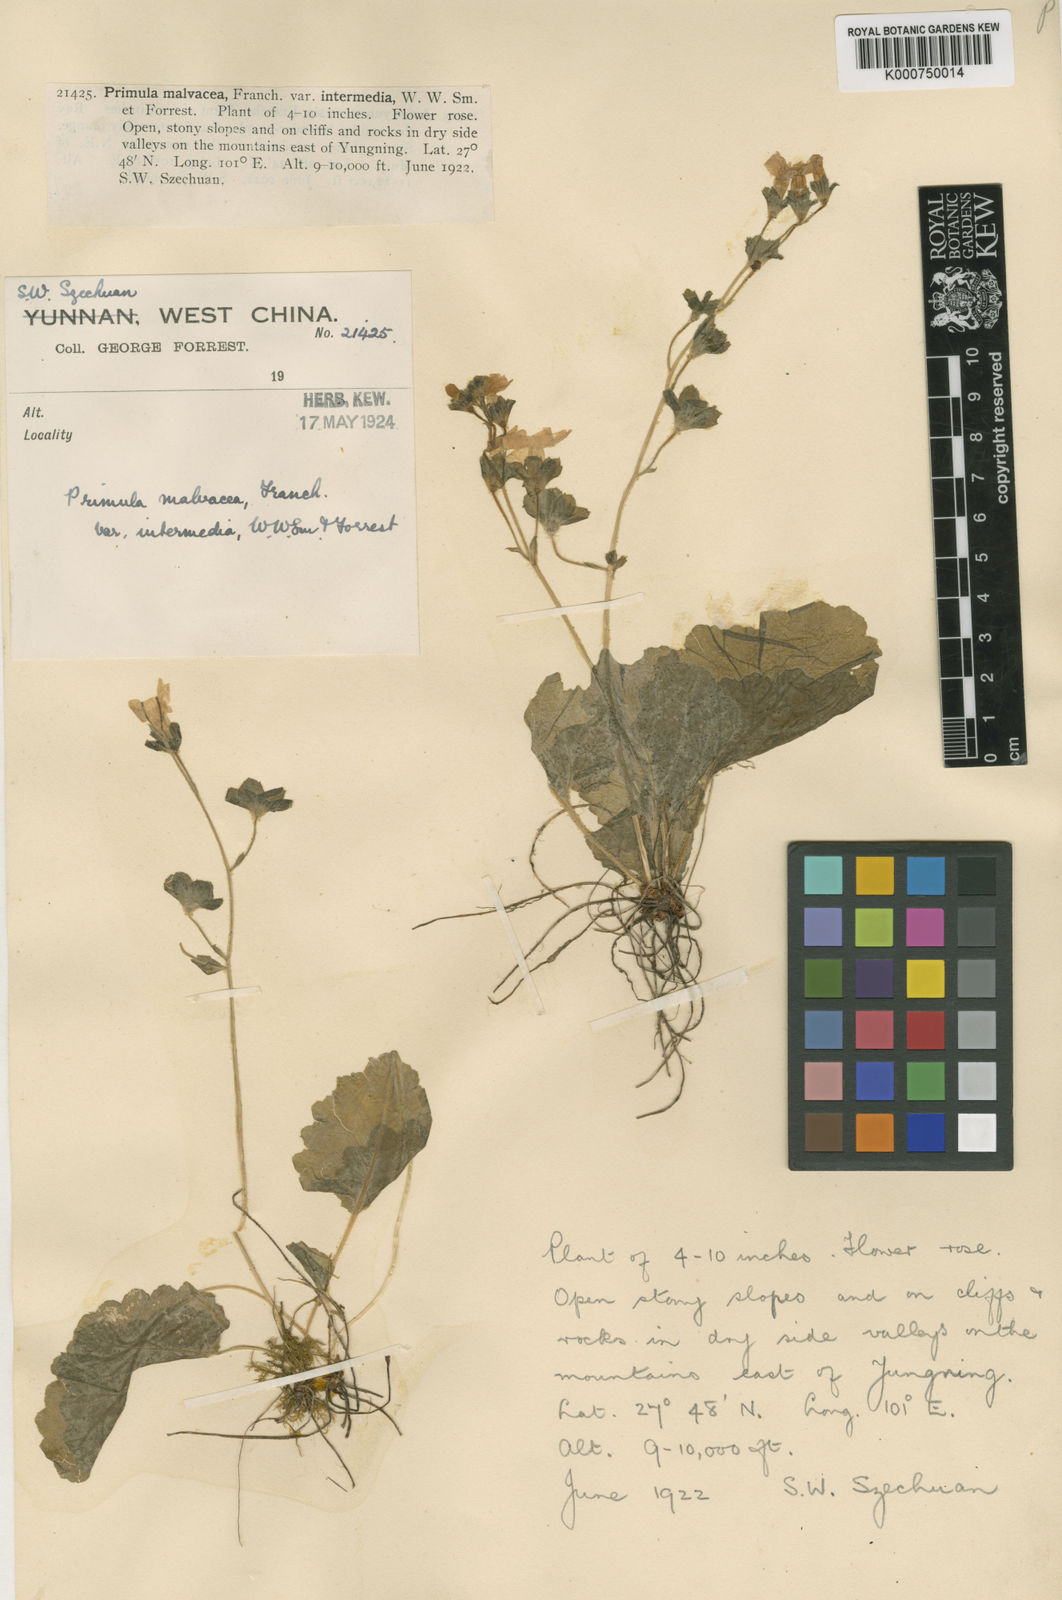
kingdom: Plantae
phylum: Tracheophyta
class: Magnoliopsida
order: Ericales
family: Primulaceae
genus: Primula
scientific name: Primula malvacea
